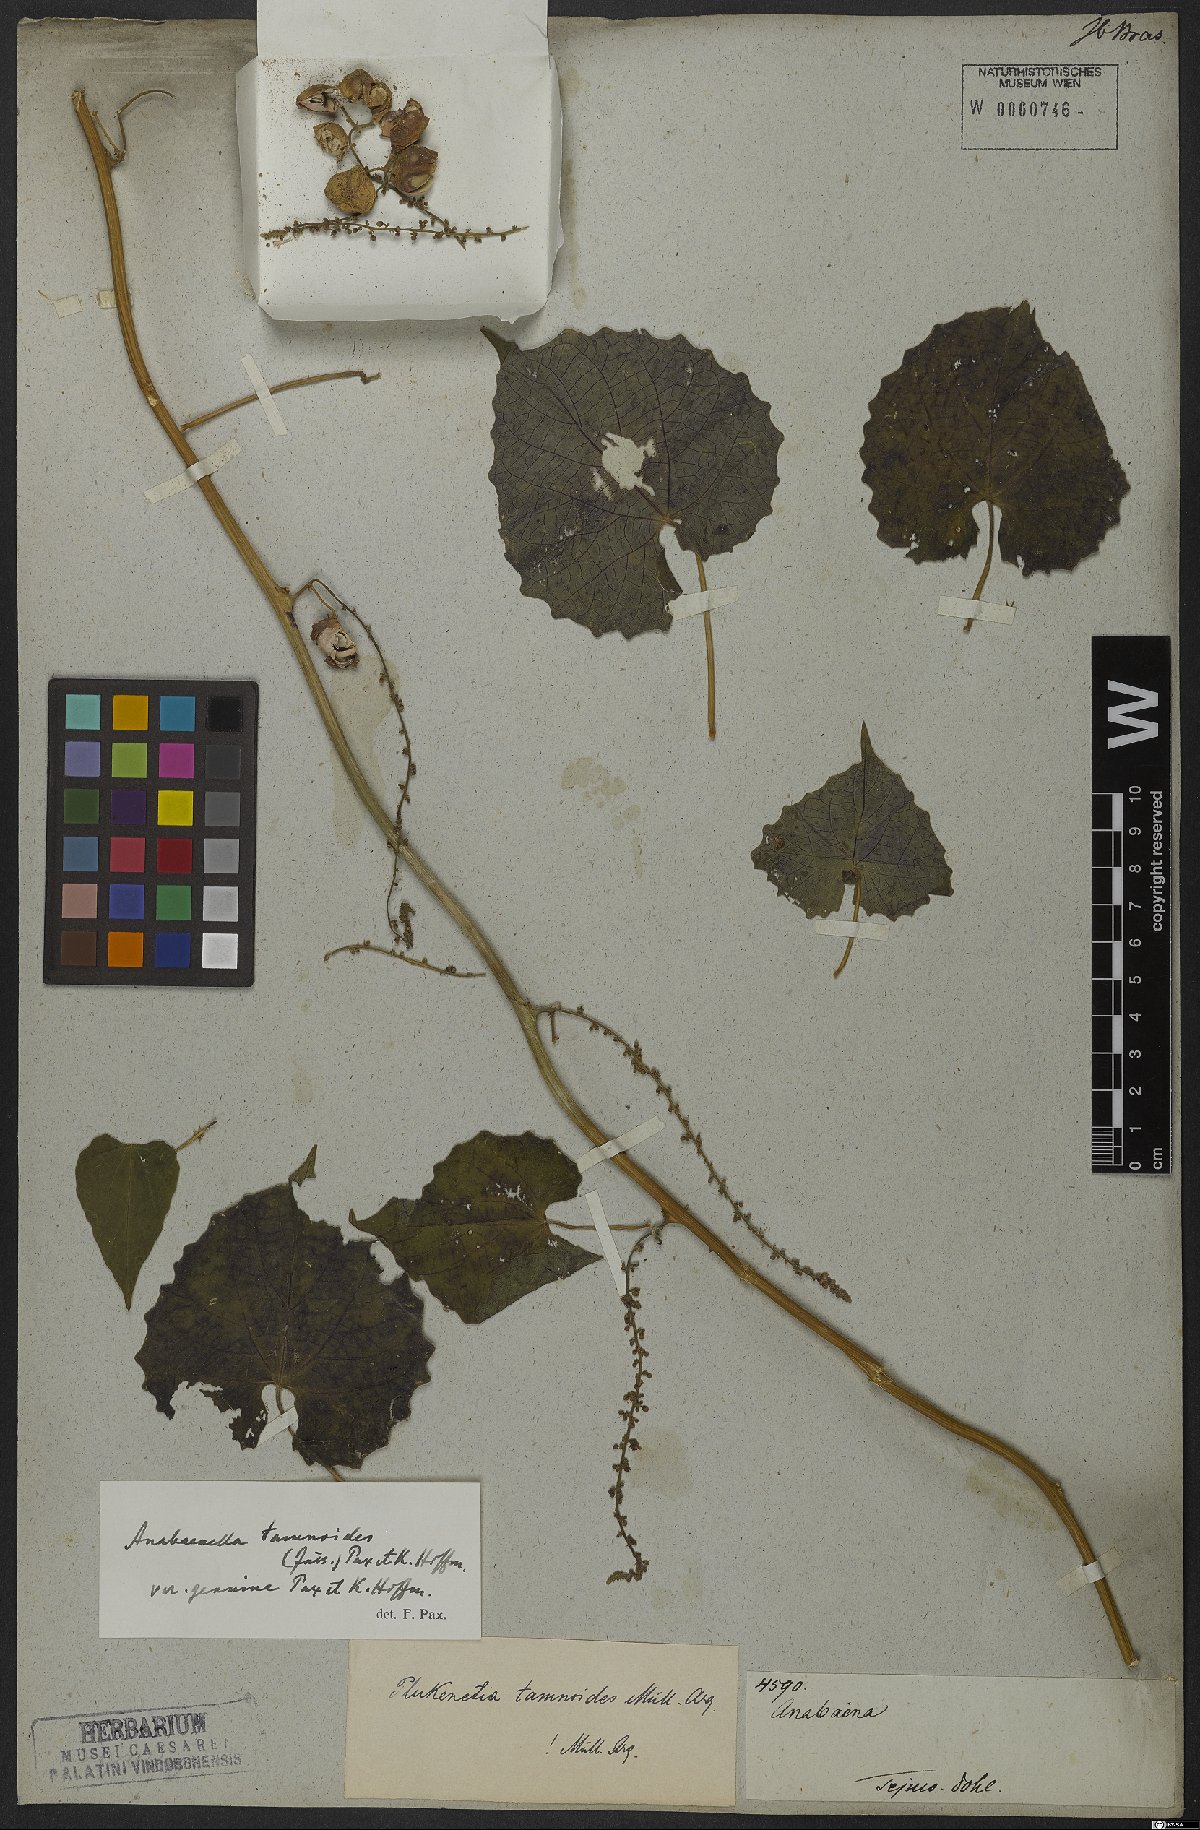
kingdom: Plantae
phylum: Tracheophyta
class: Magnoliopsida
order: Malpighiales
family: Euphorbiaceae
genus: Romanoa
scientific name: Romanoa tamnoides
